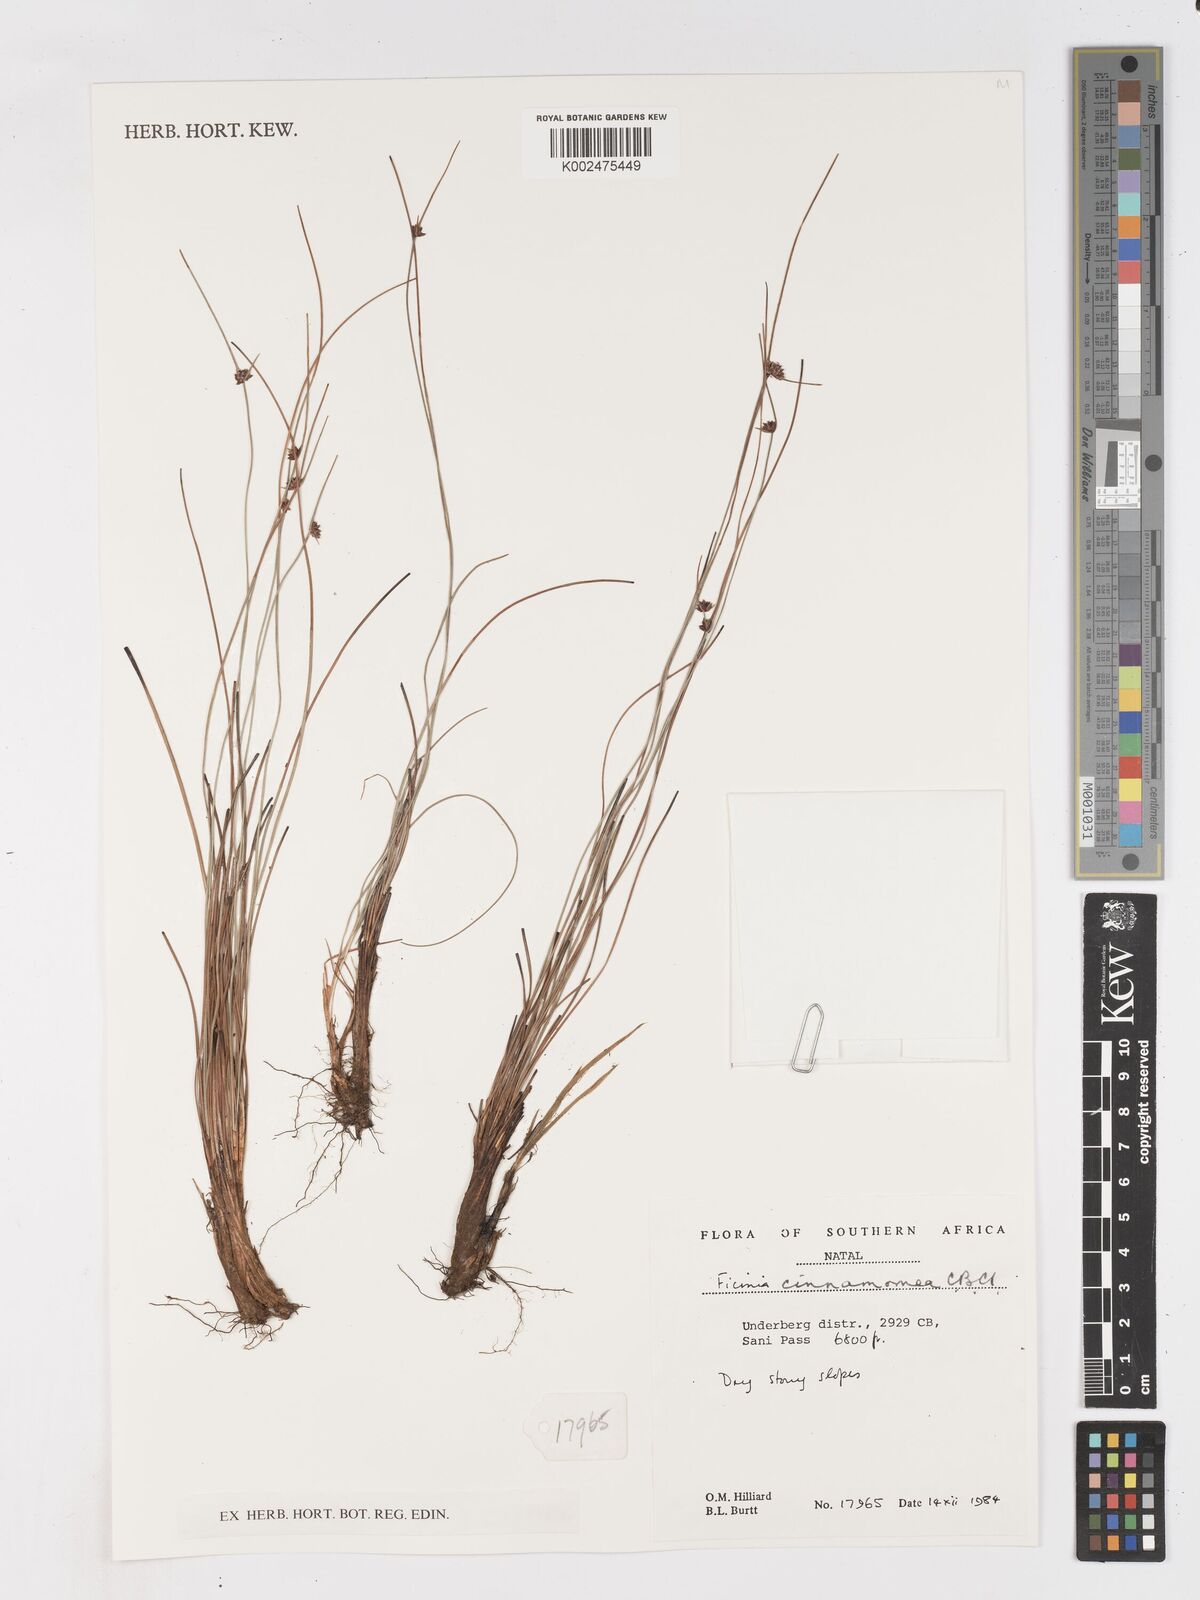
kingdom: Plantae
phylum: Tracheophyta
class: Liliopsida
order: Poales
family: Cyperaceae
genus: Ficinia
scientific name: Ficinia cinnamomea
